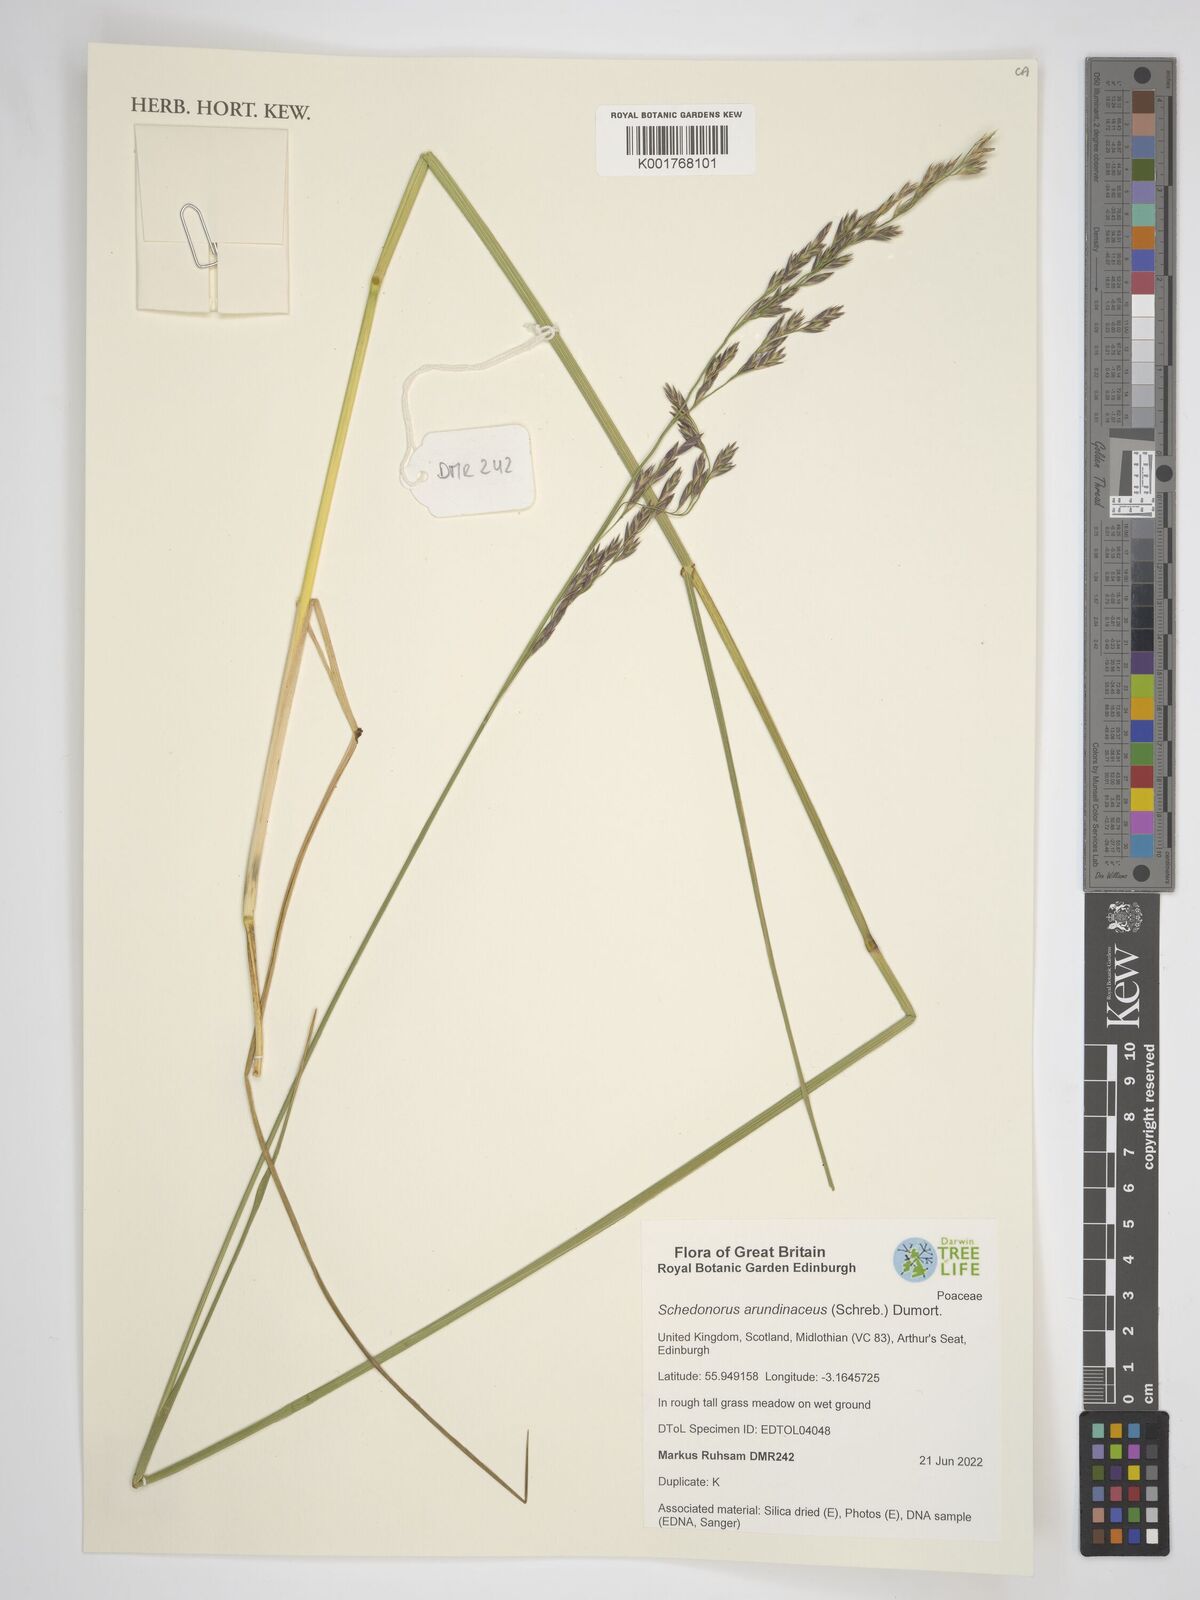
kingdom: Plantae
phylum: Tracheophyta
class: Liliopsida
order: Poales
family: Poaceae
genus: Lolium
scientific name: Lolium arundinaceum
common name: Reed fescue
